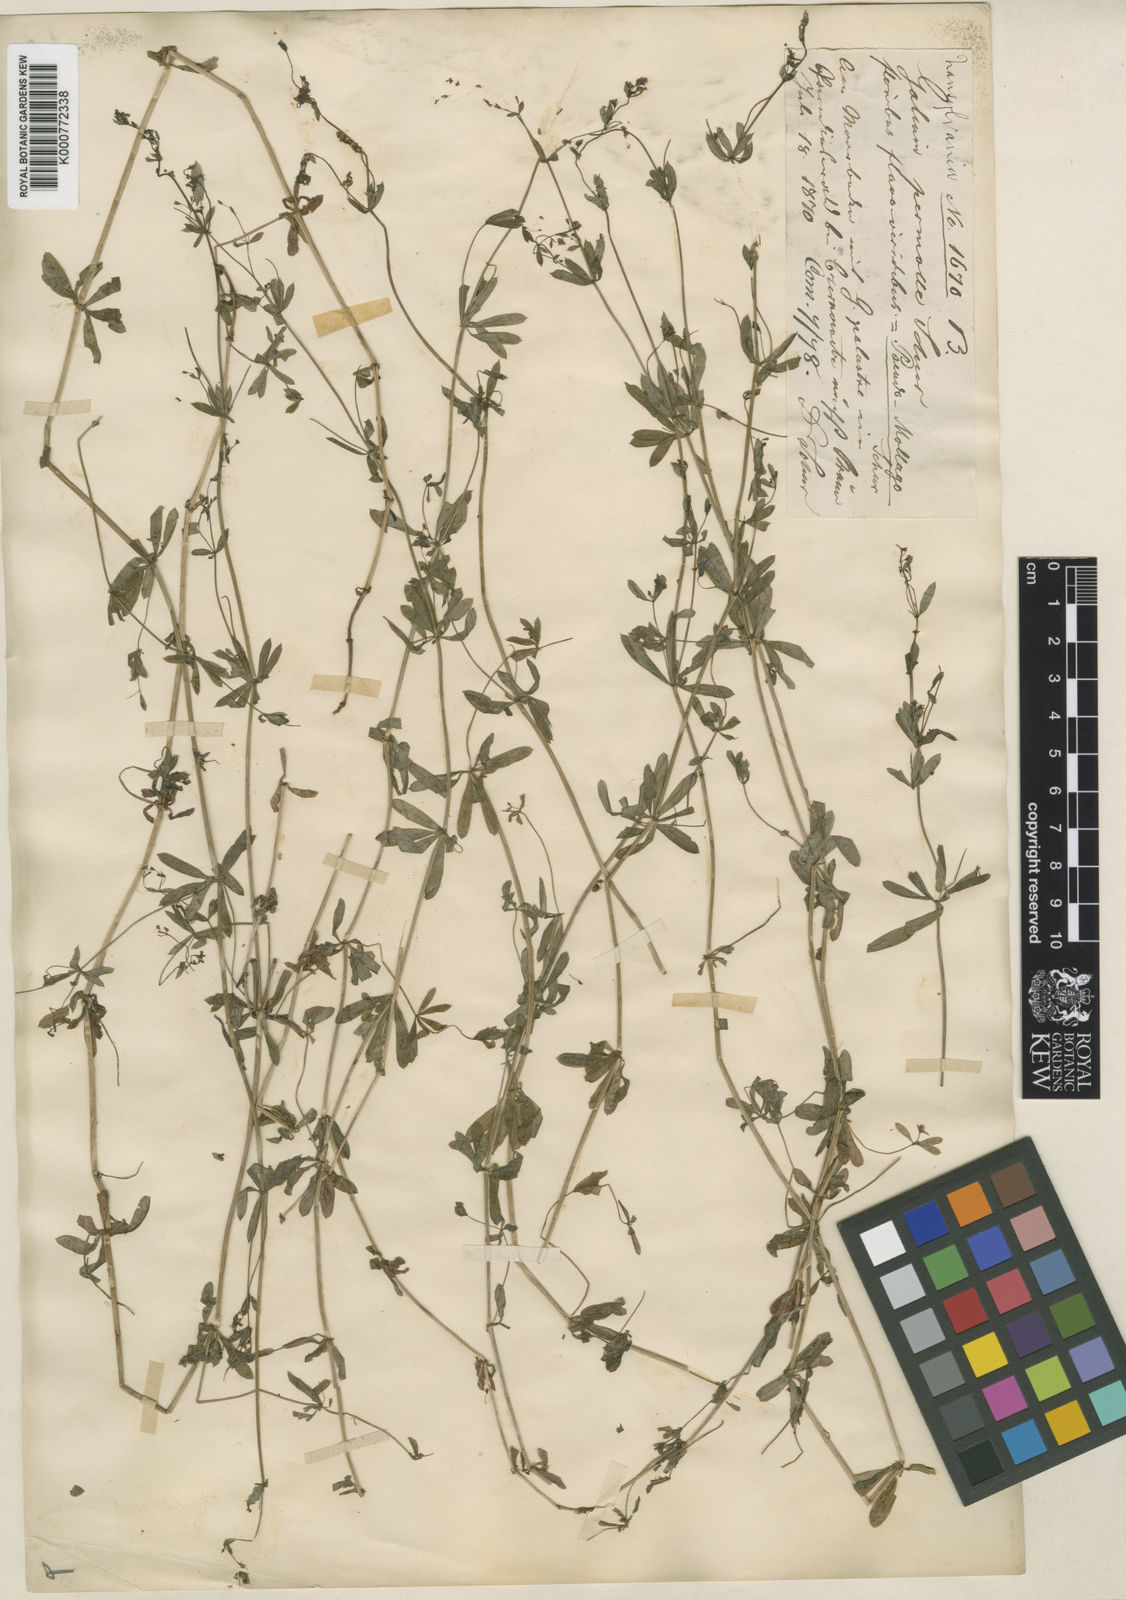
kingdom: Plantae
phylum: Tracheophyta
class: Magnoliopsida
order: Gentianales
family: Rubiaceae
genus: Galium
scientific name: Galium mollugo
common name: Hedge bedstraw
